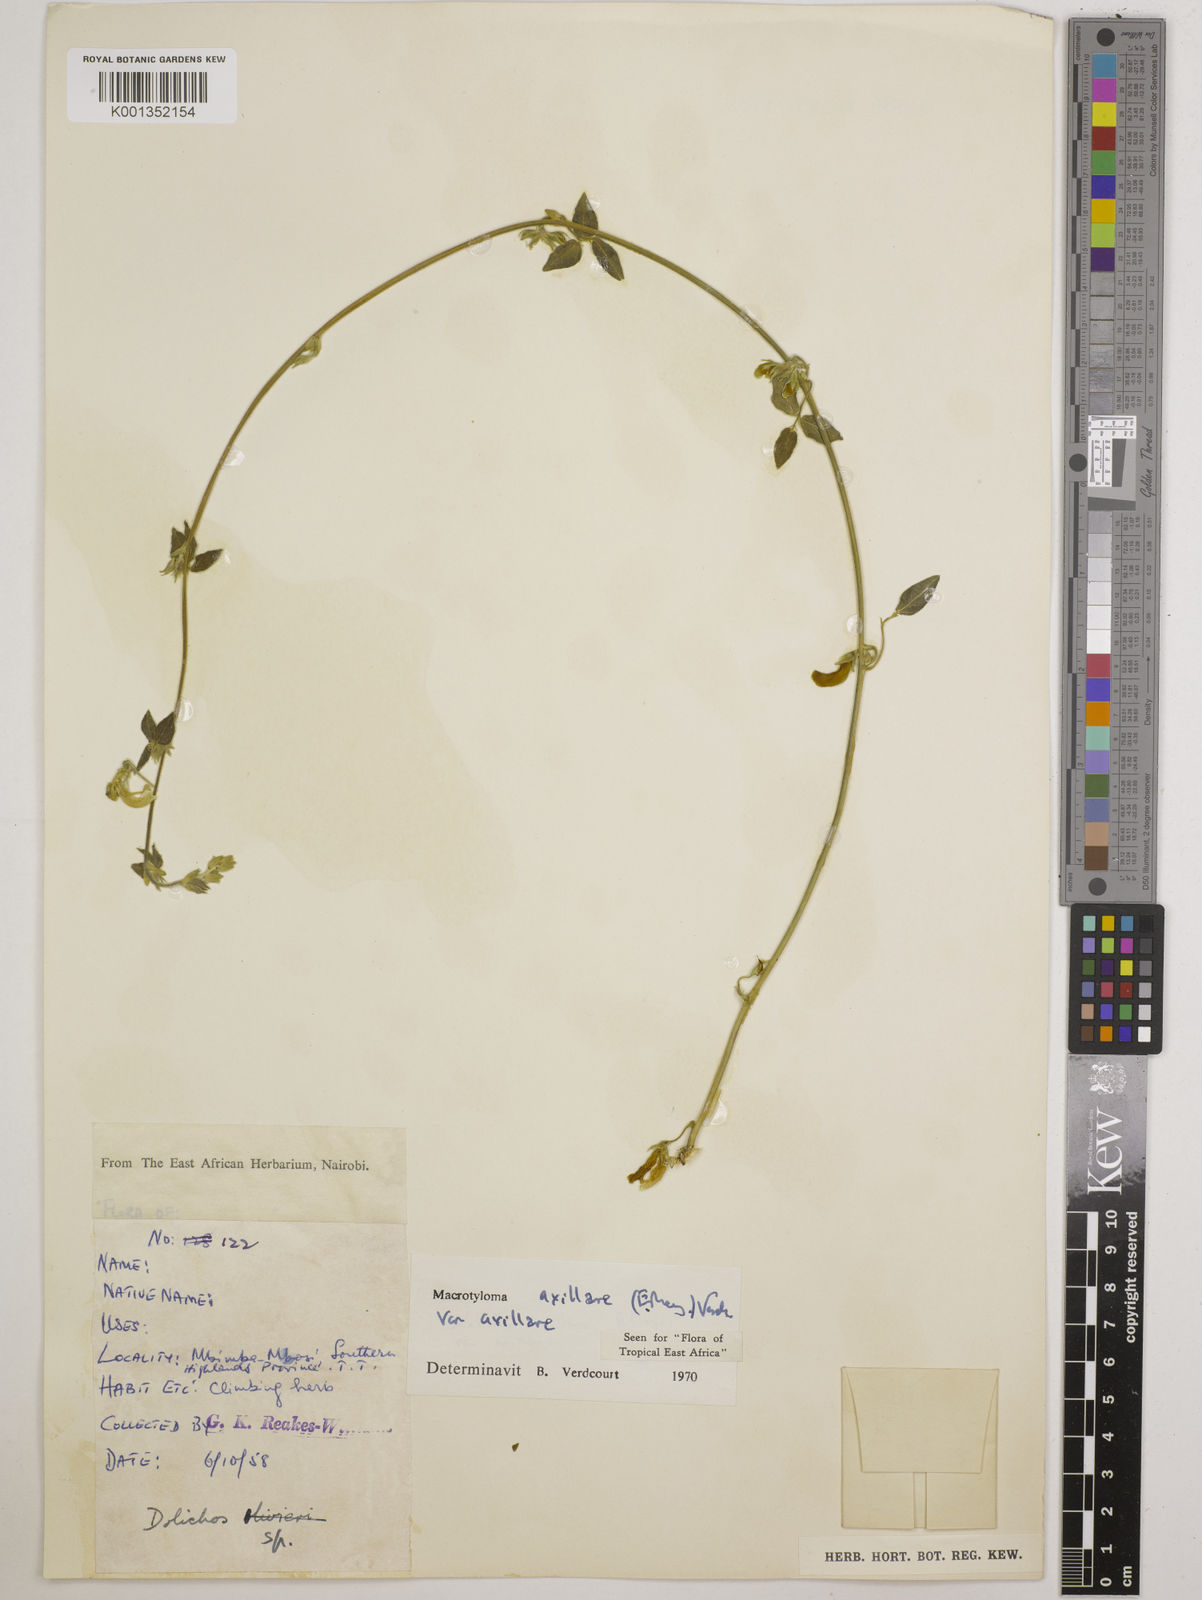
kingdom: Plantae
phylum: Tracheophyta
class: Magnoliopsida
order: Fabales
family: Fabaceae
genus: Macrotyloma
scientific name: Macrotyloma axillare
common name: Perennial horsegram
